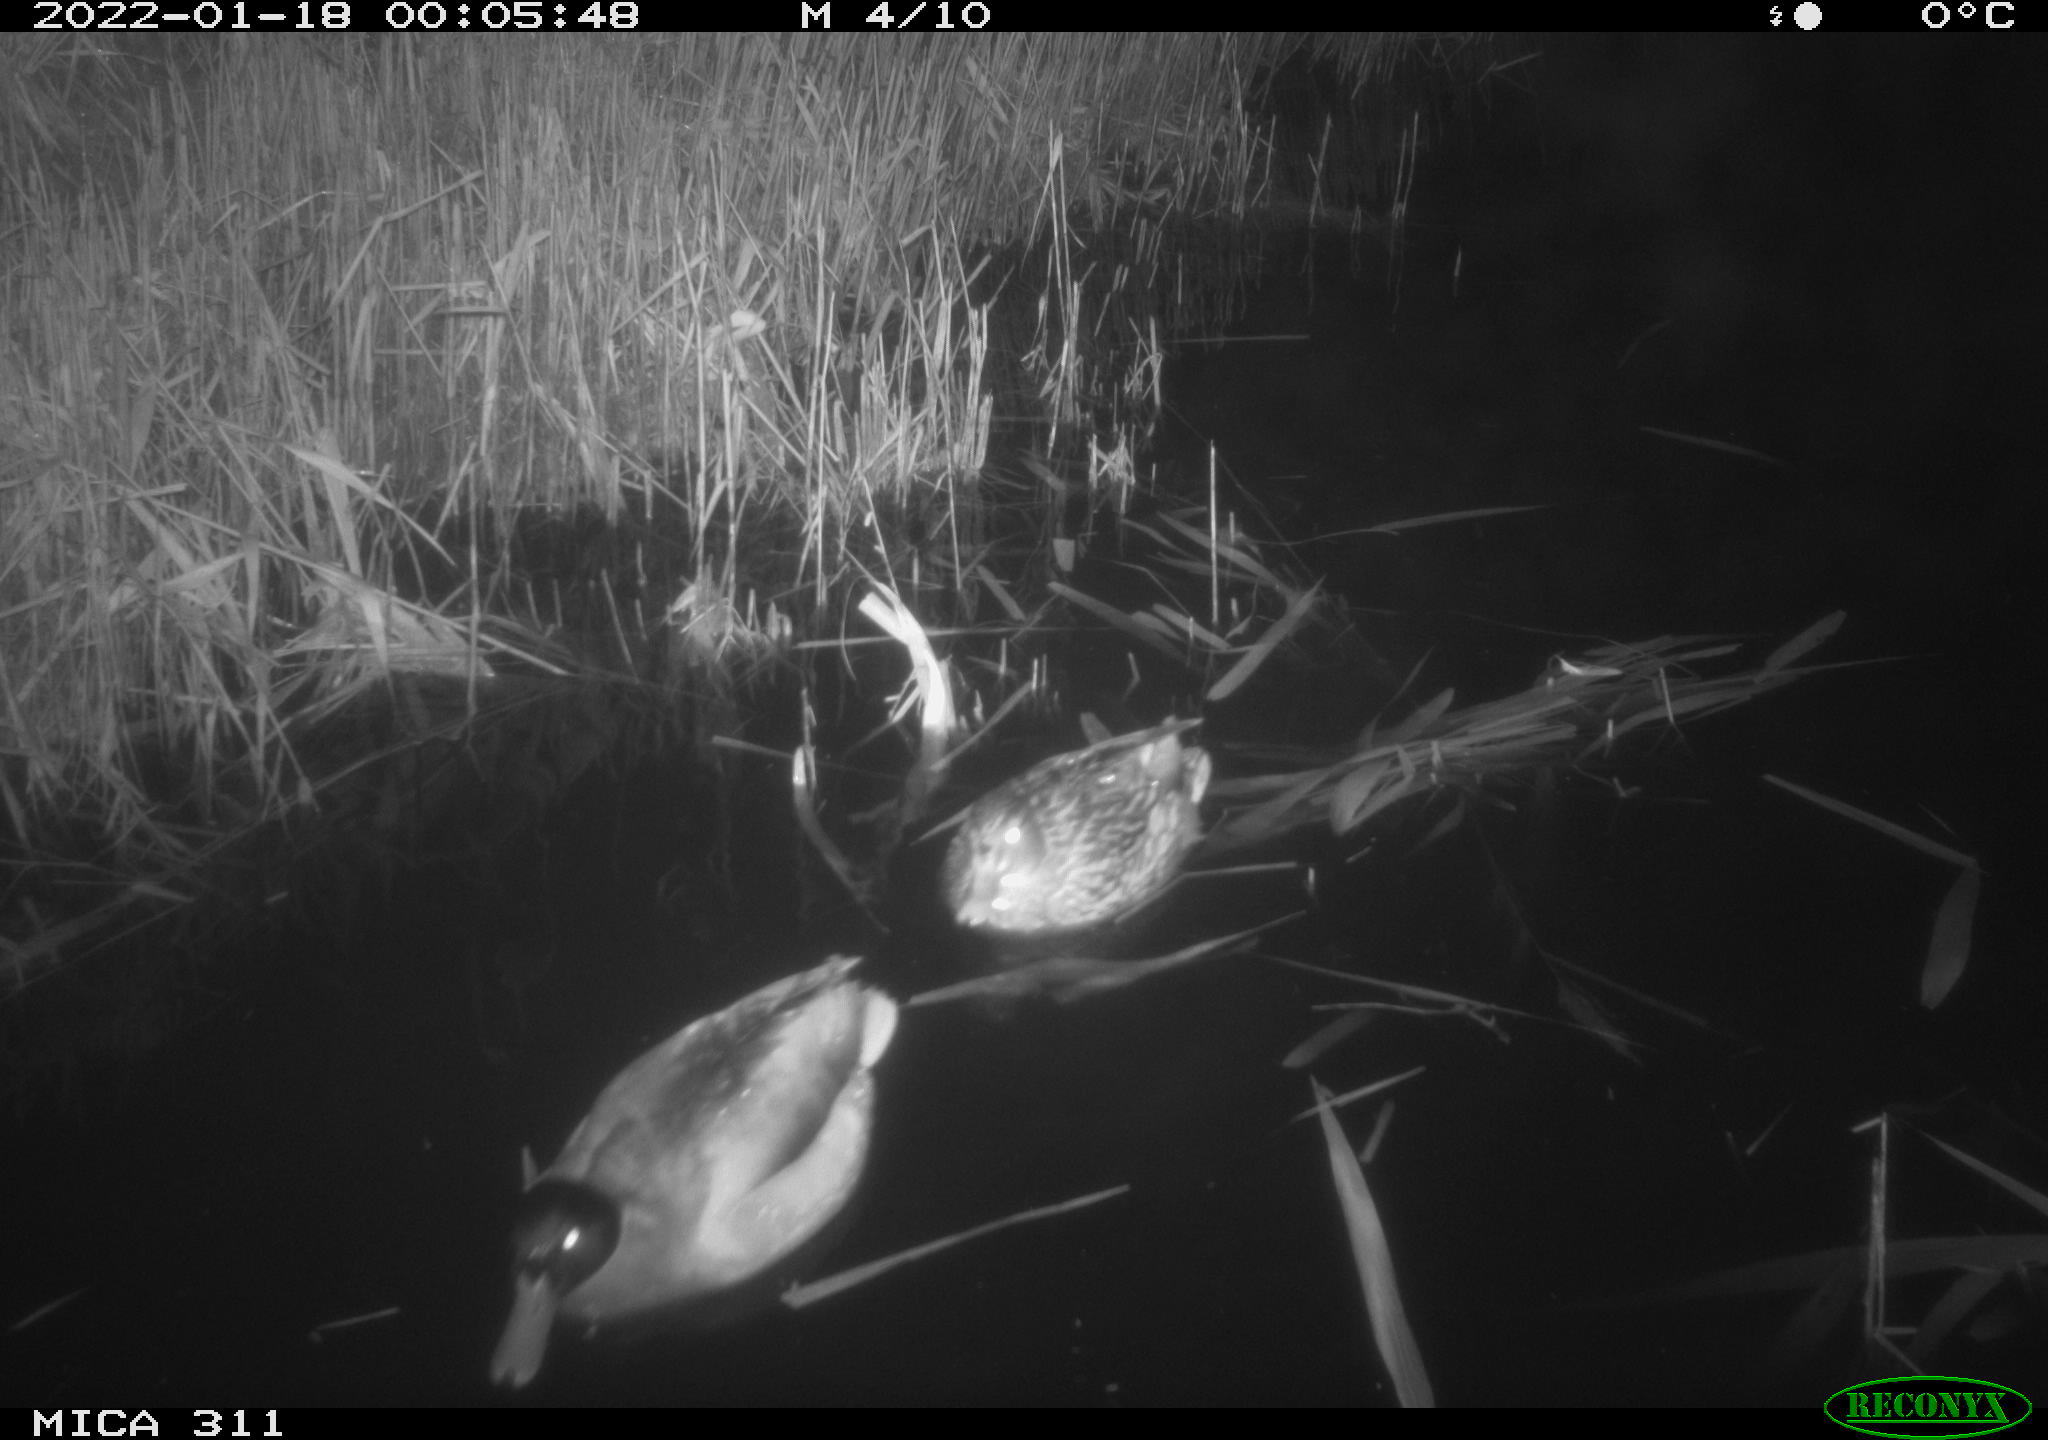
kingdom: Animalia
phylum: Chordata
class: Aves
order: Anseriformes
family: Anatidae
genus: Anas
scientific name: Anas
